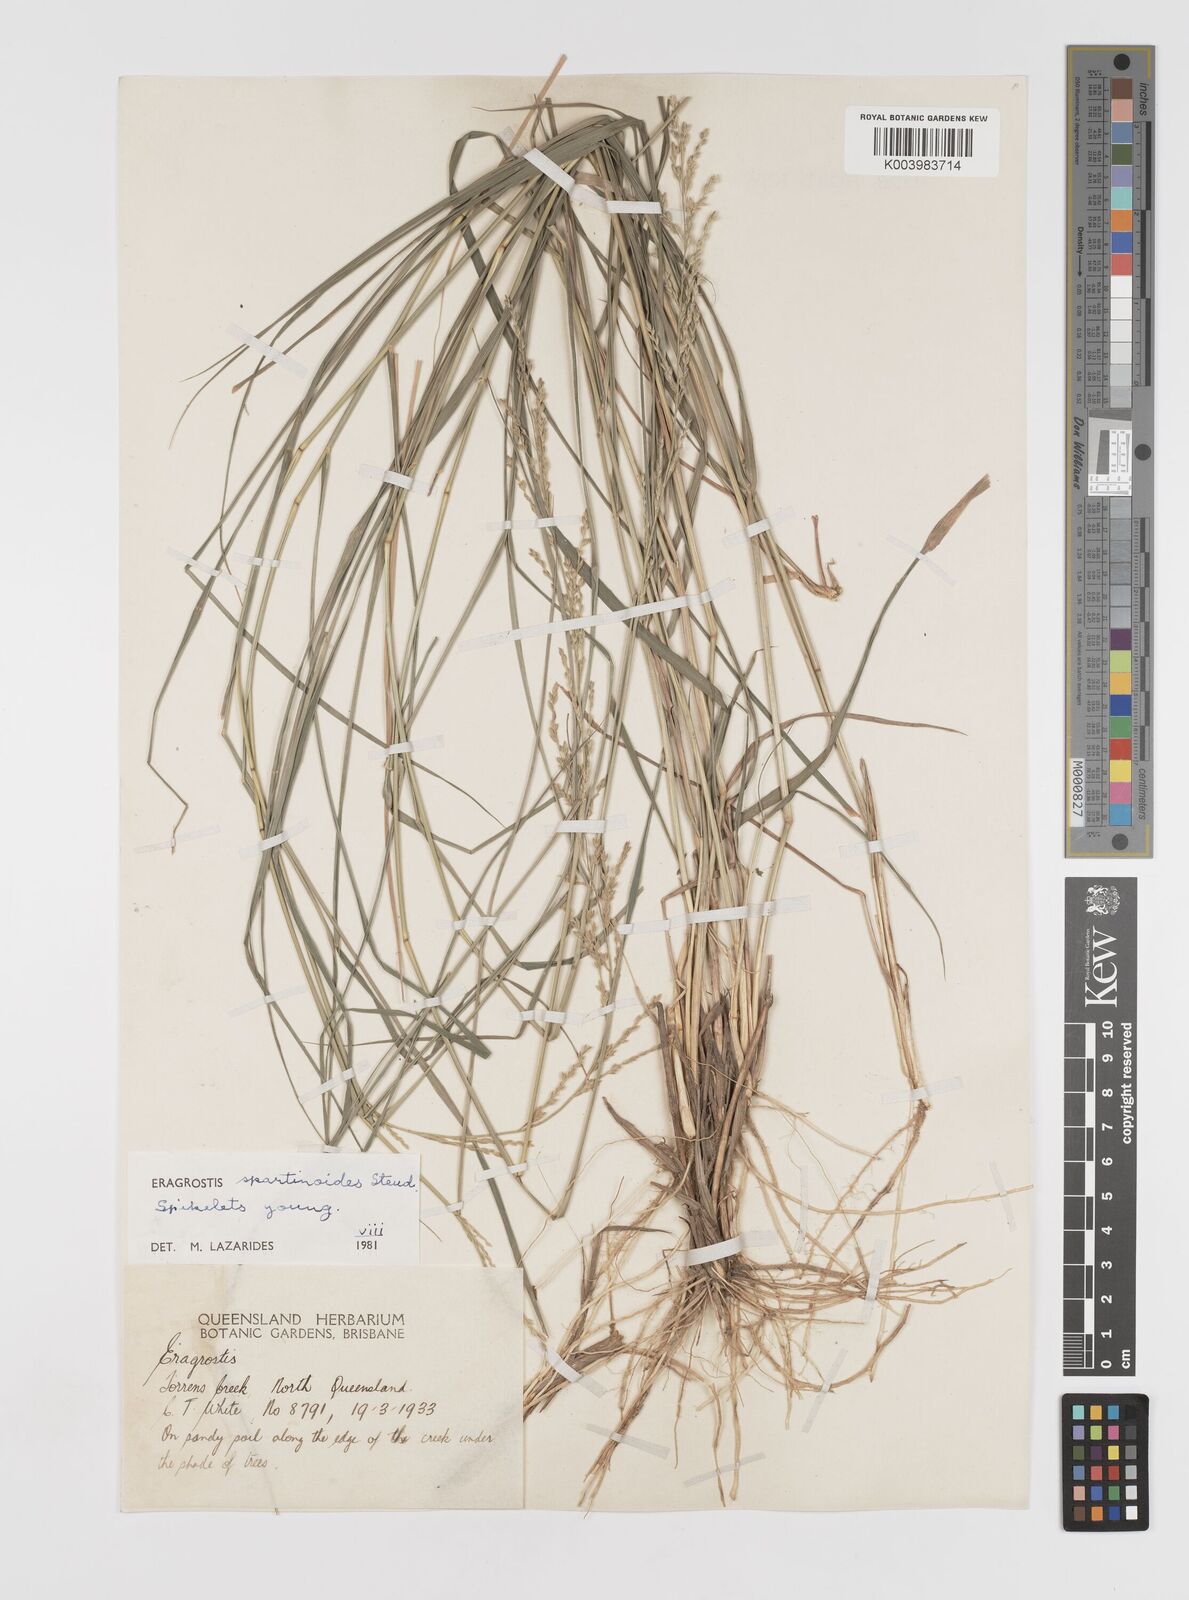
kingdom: Plantae
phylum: Tracheophyta
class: Liliopsida
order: Poales
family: Poaceae
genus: Eragrostis
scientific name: Eragrostis brownii
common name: Lovegrass
